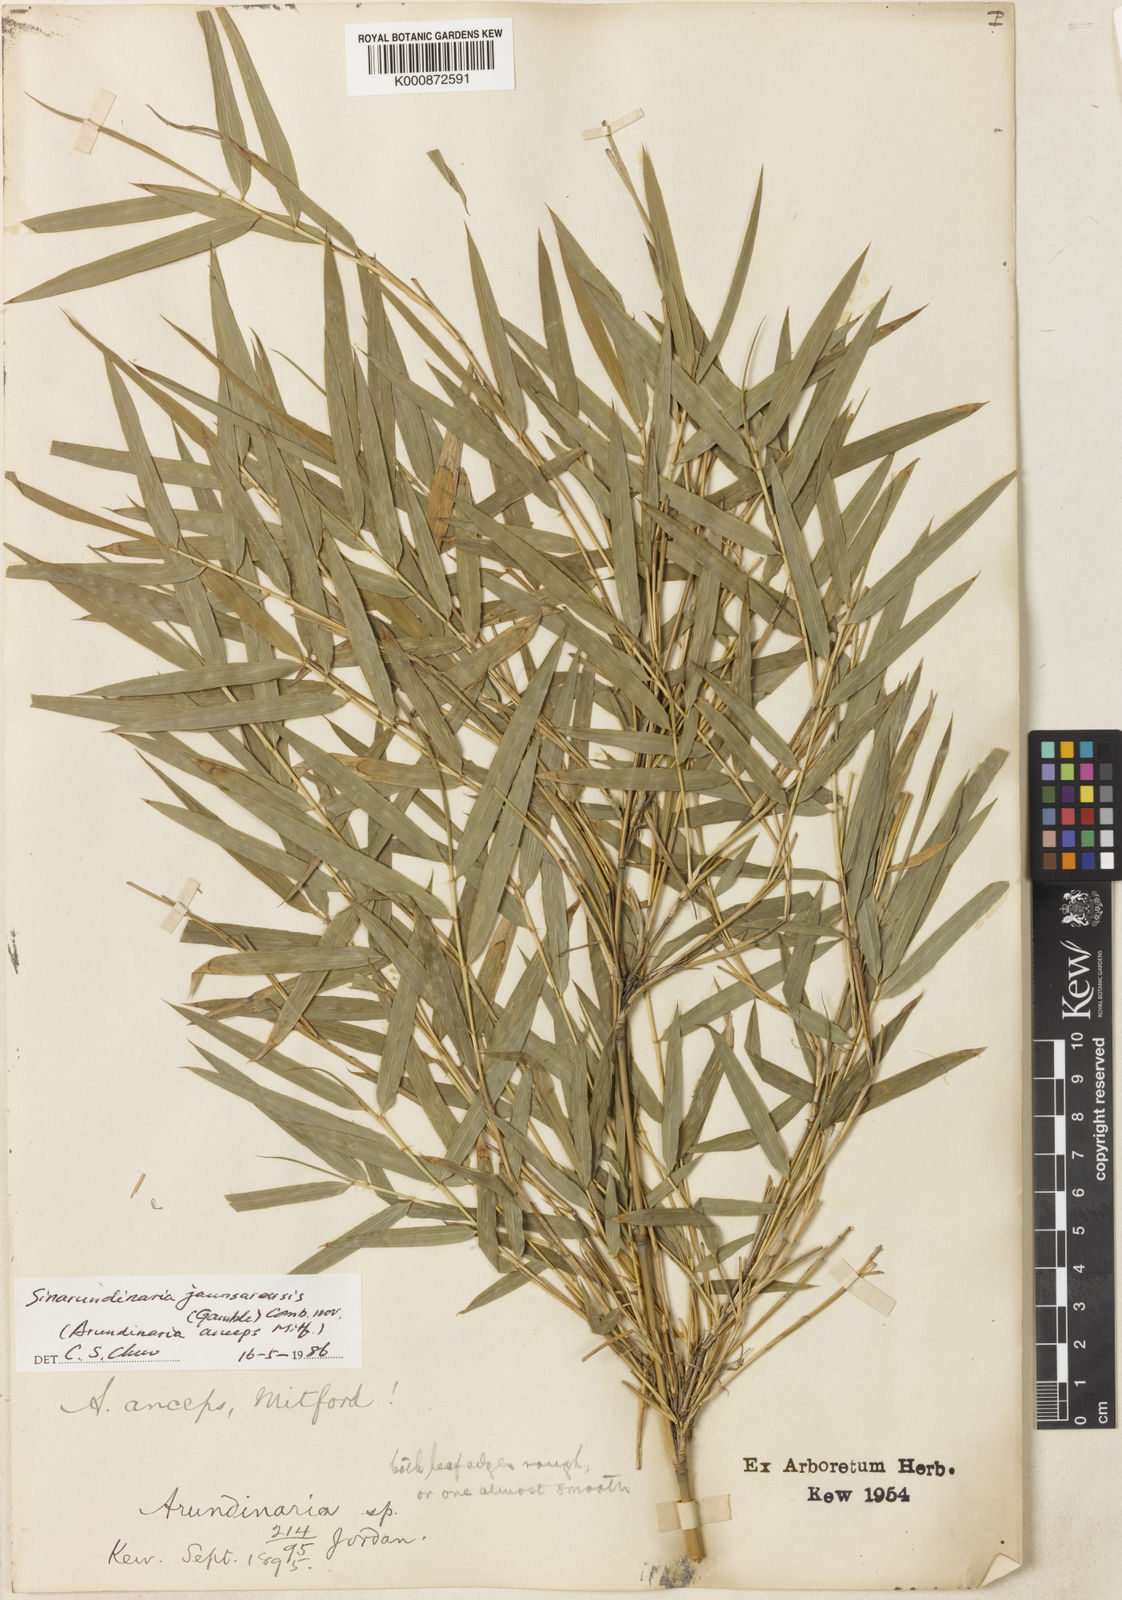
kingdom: Plantae
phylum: Tracheophyta
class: Liliopsida
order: Poales
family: Poaceae
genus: Yushania
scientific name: Yushania anceps
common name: Indian fountain-bamboo
